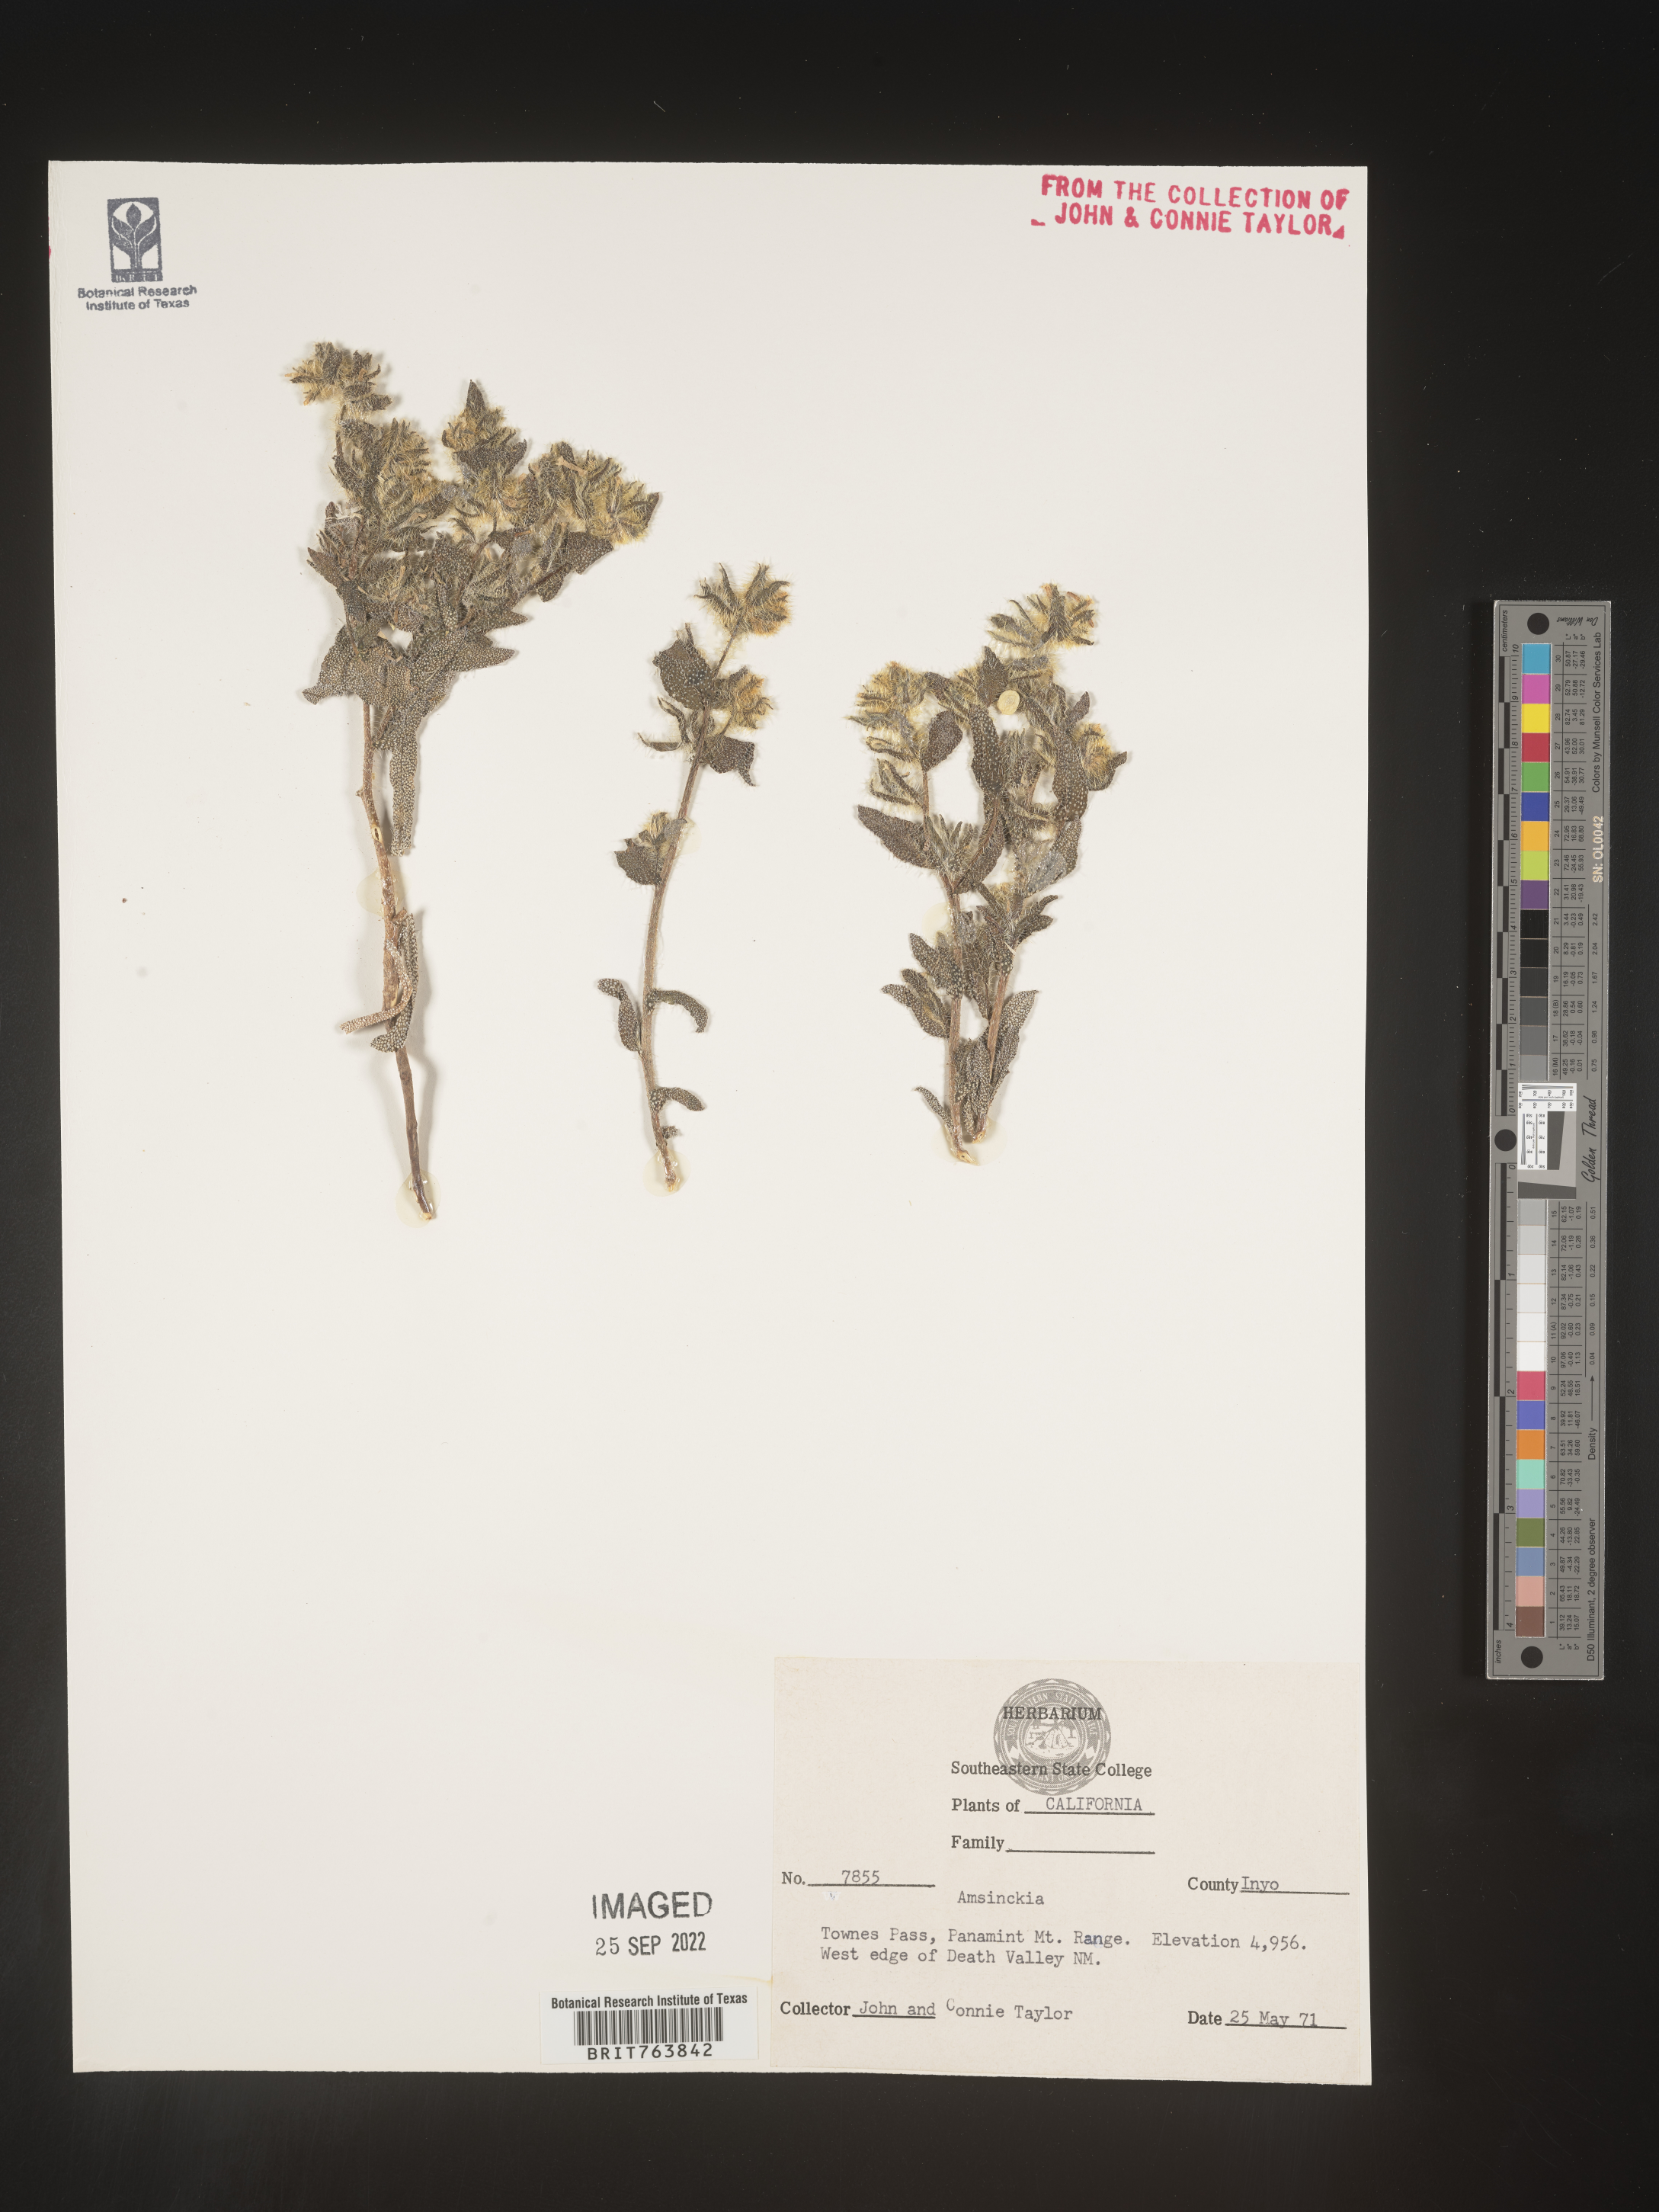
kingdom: Plantae
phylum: Tracheophyta
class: Magnoliopsida
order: Boraginales
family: Boraginaceae
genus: Amsinckia
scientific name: Amsinckia
